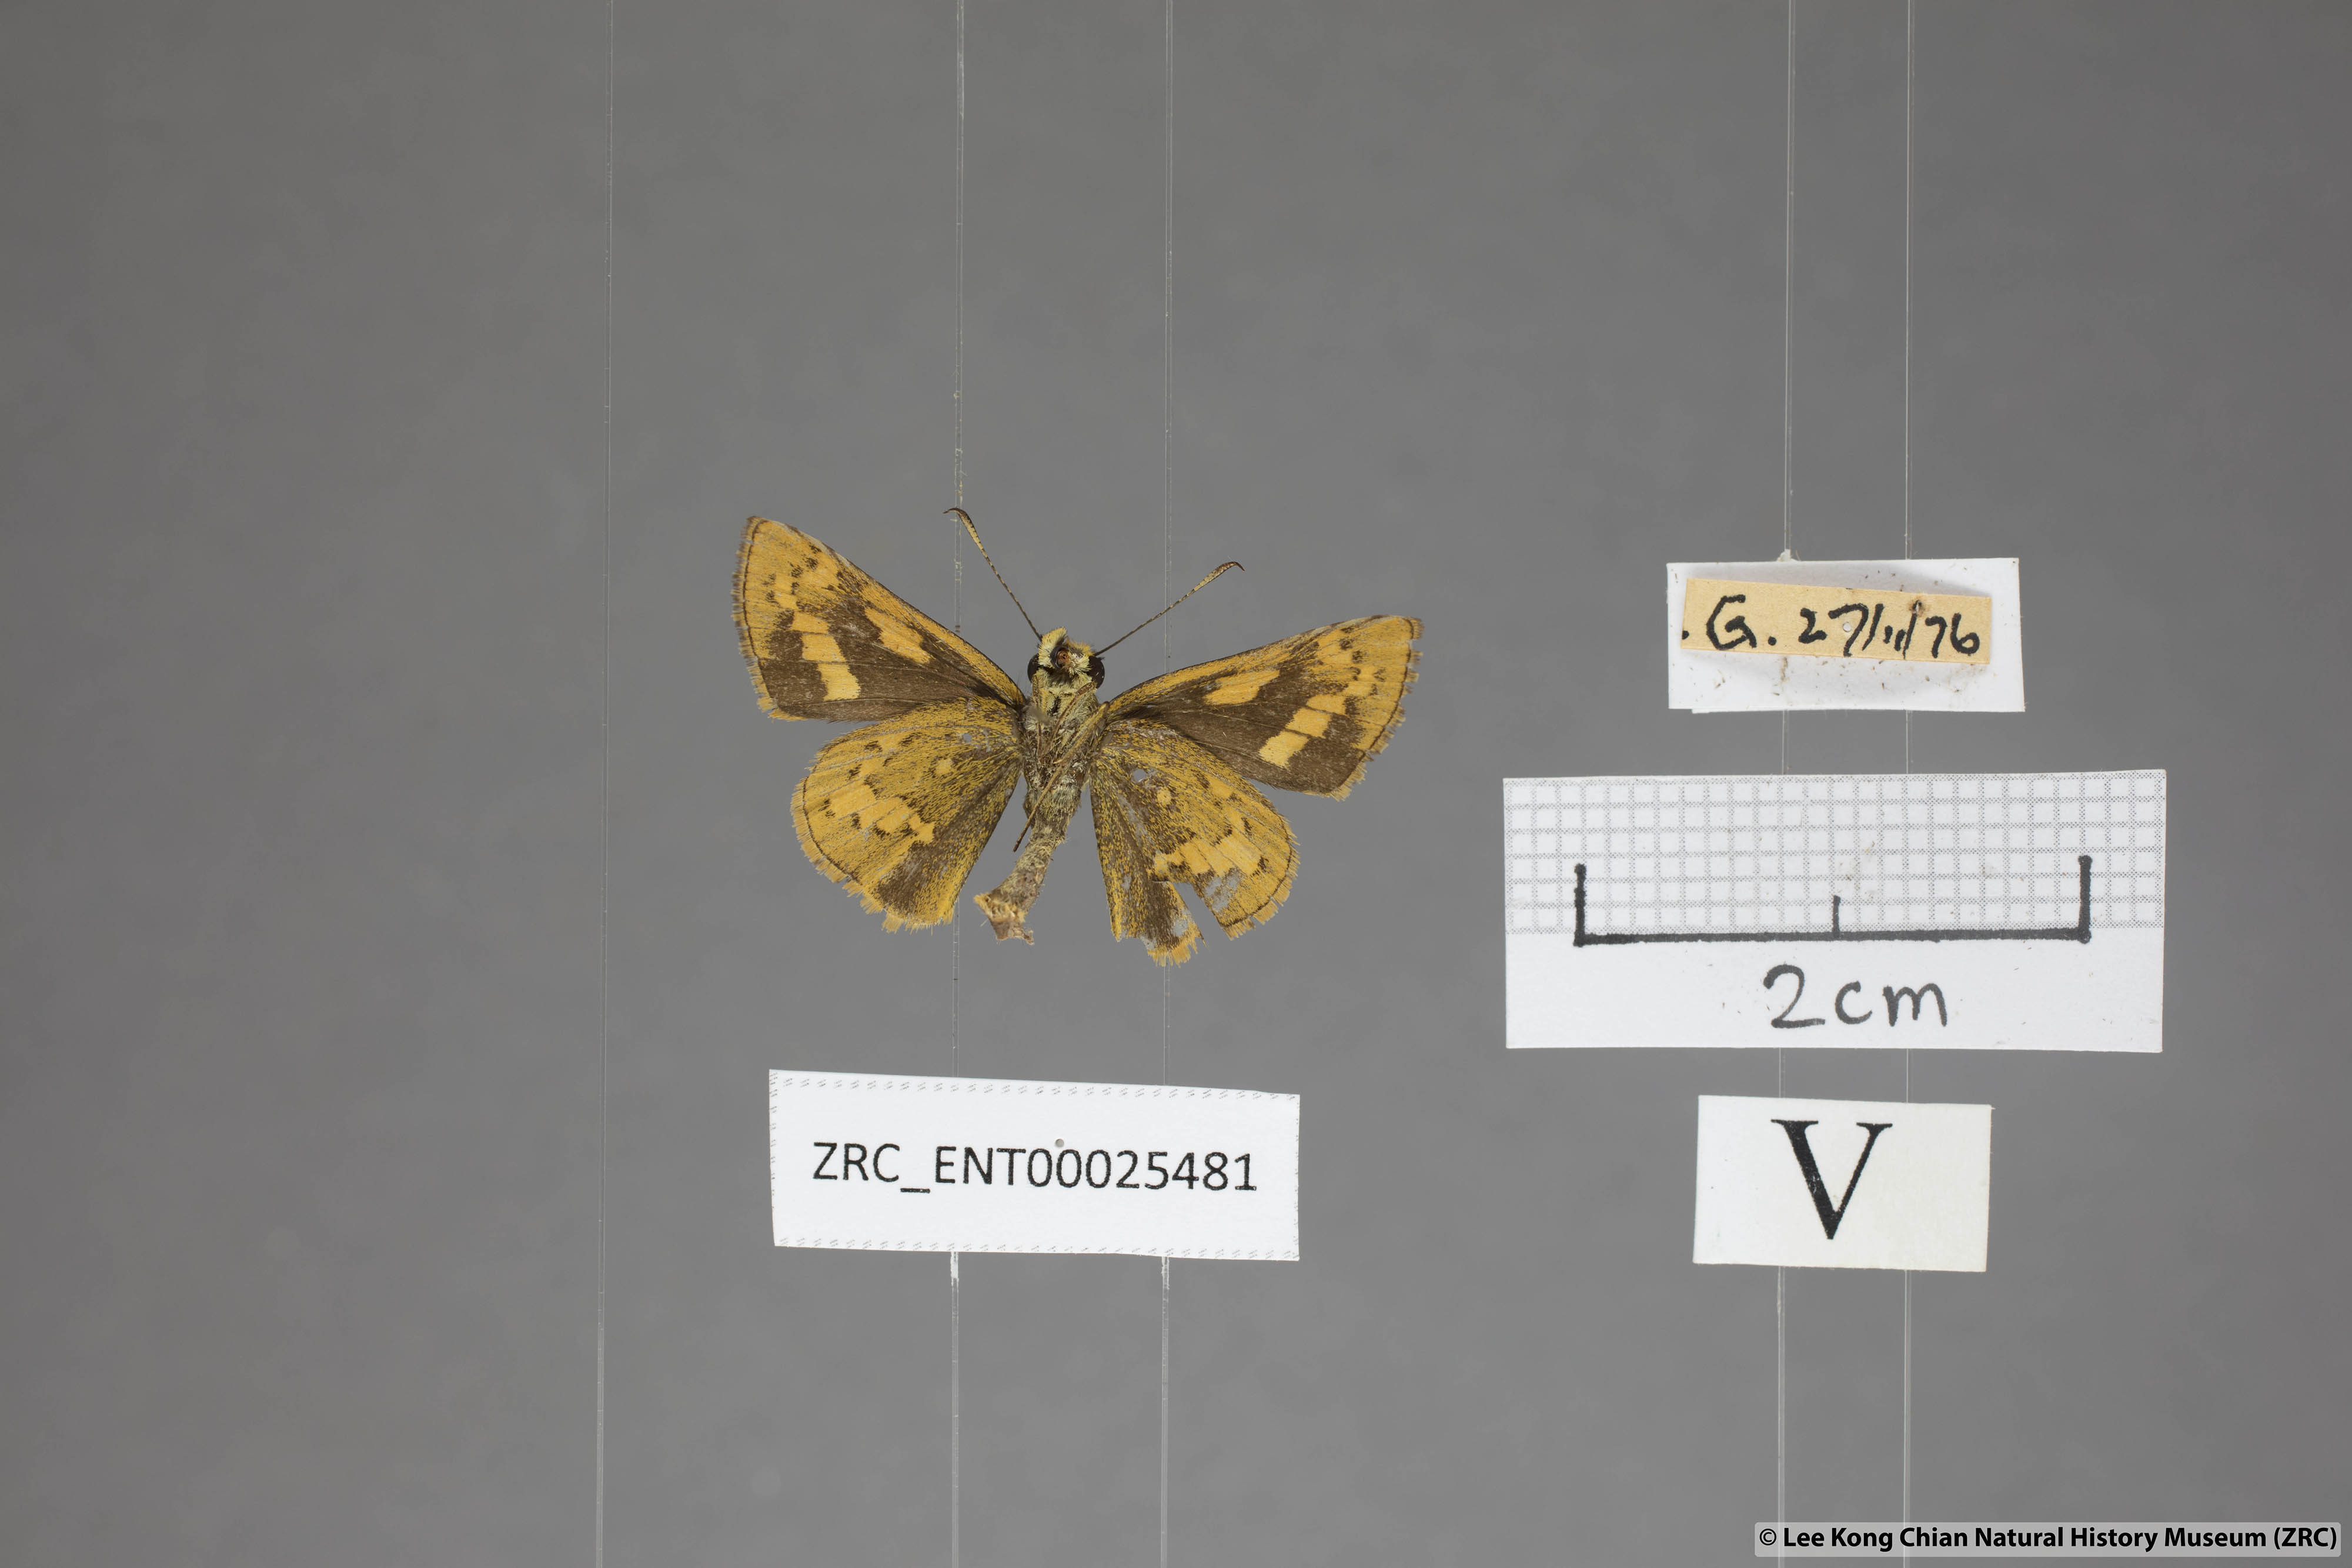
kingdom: Animalia
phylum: Arthropoda
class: Insecta
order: Lepidoptera
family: Hesperiidae
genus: Potanthus
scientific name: Potanthus rectifasciata
